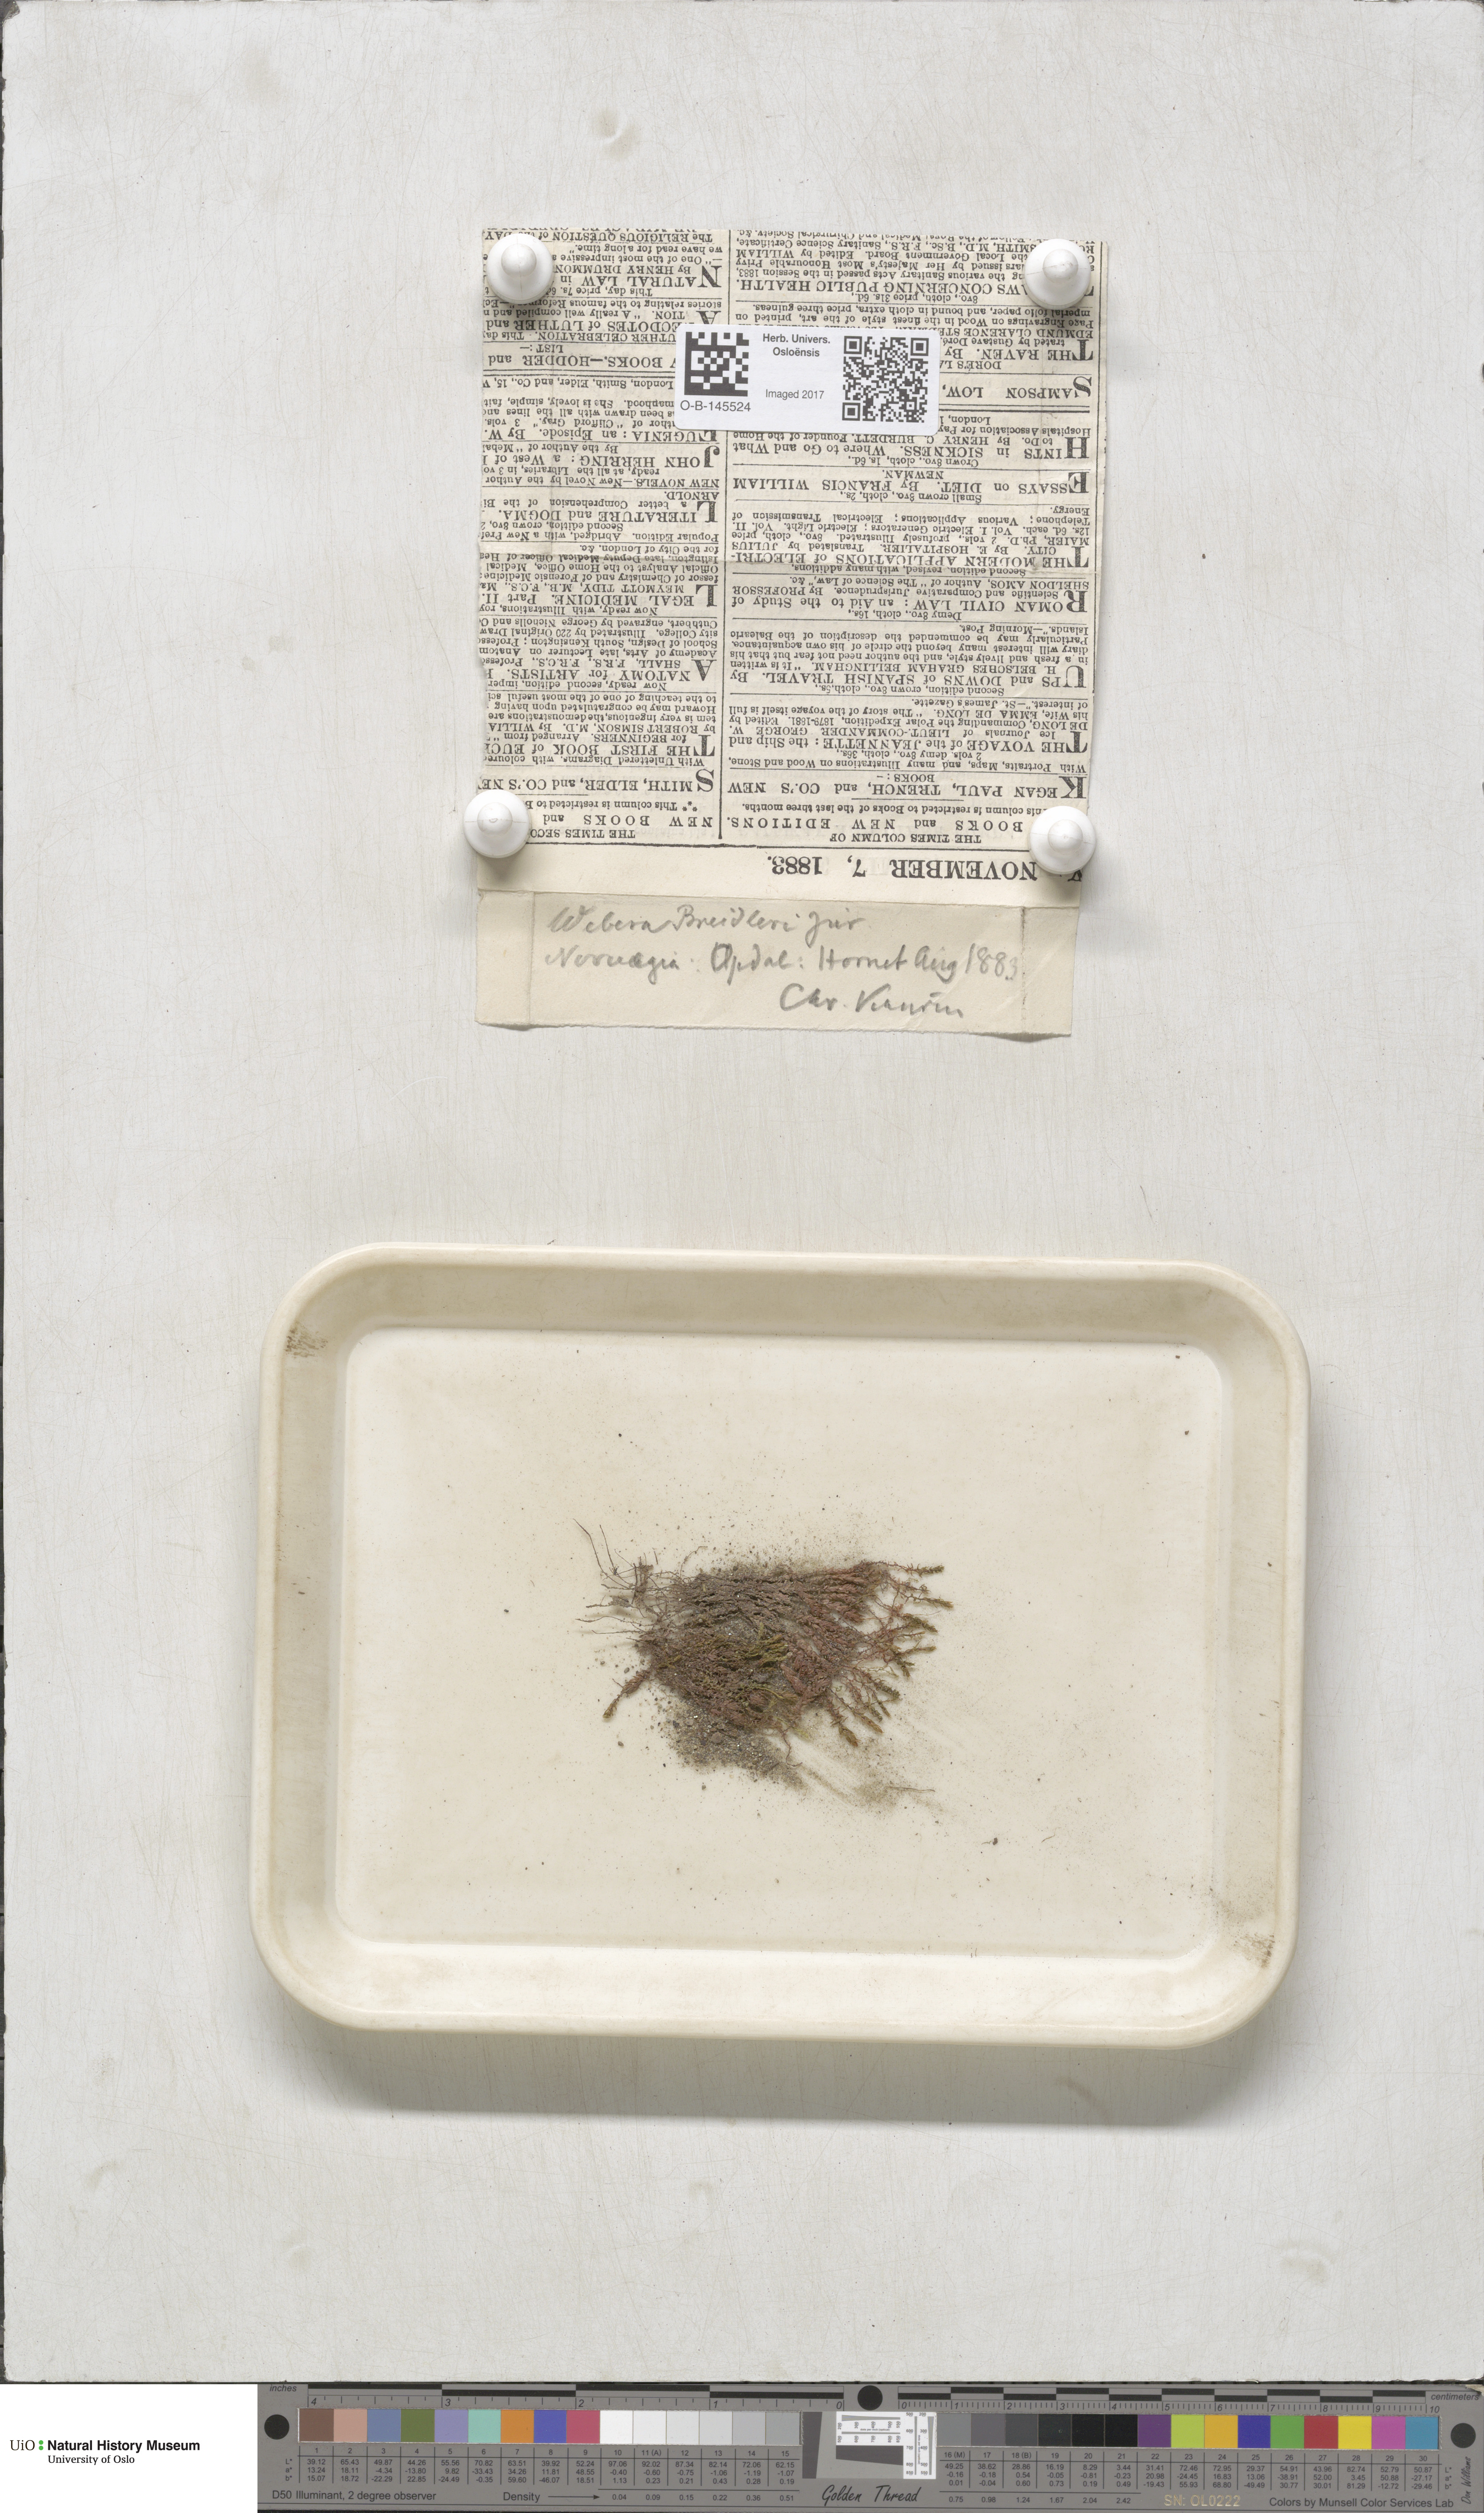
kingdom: Plantae
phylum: Bryophyta
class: Bryopsida
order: Bryales
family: Mniaceae
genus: Pohlia
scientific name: Pohlia ludwigii
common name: Ludwig's thread-moss
